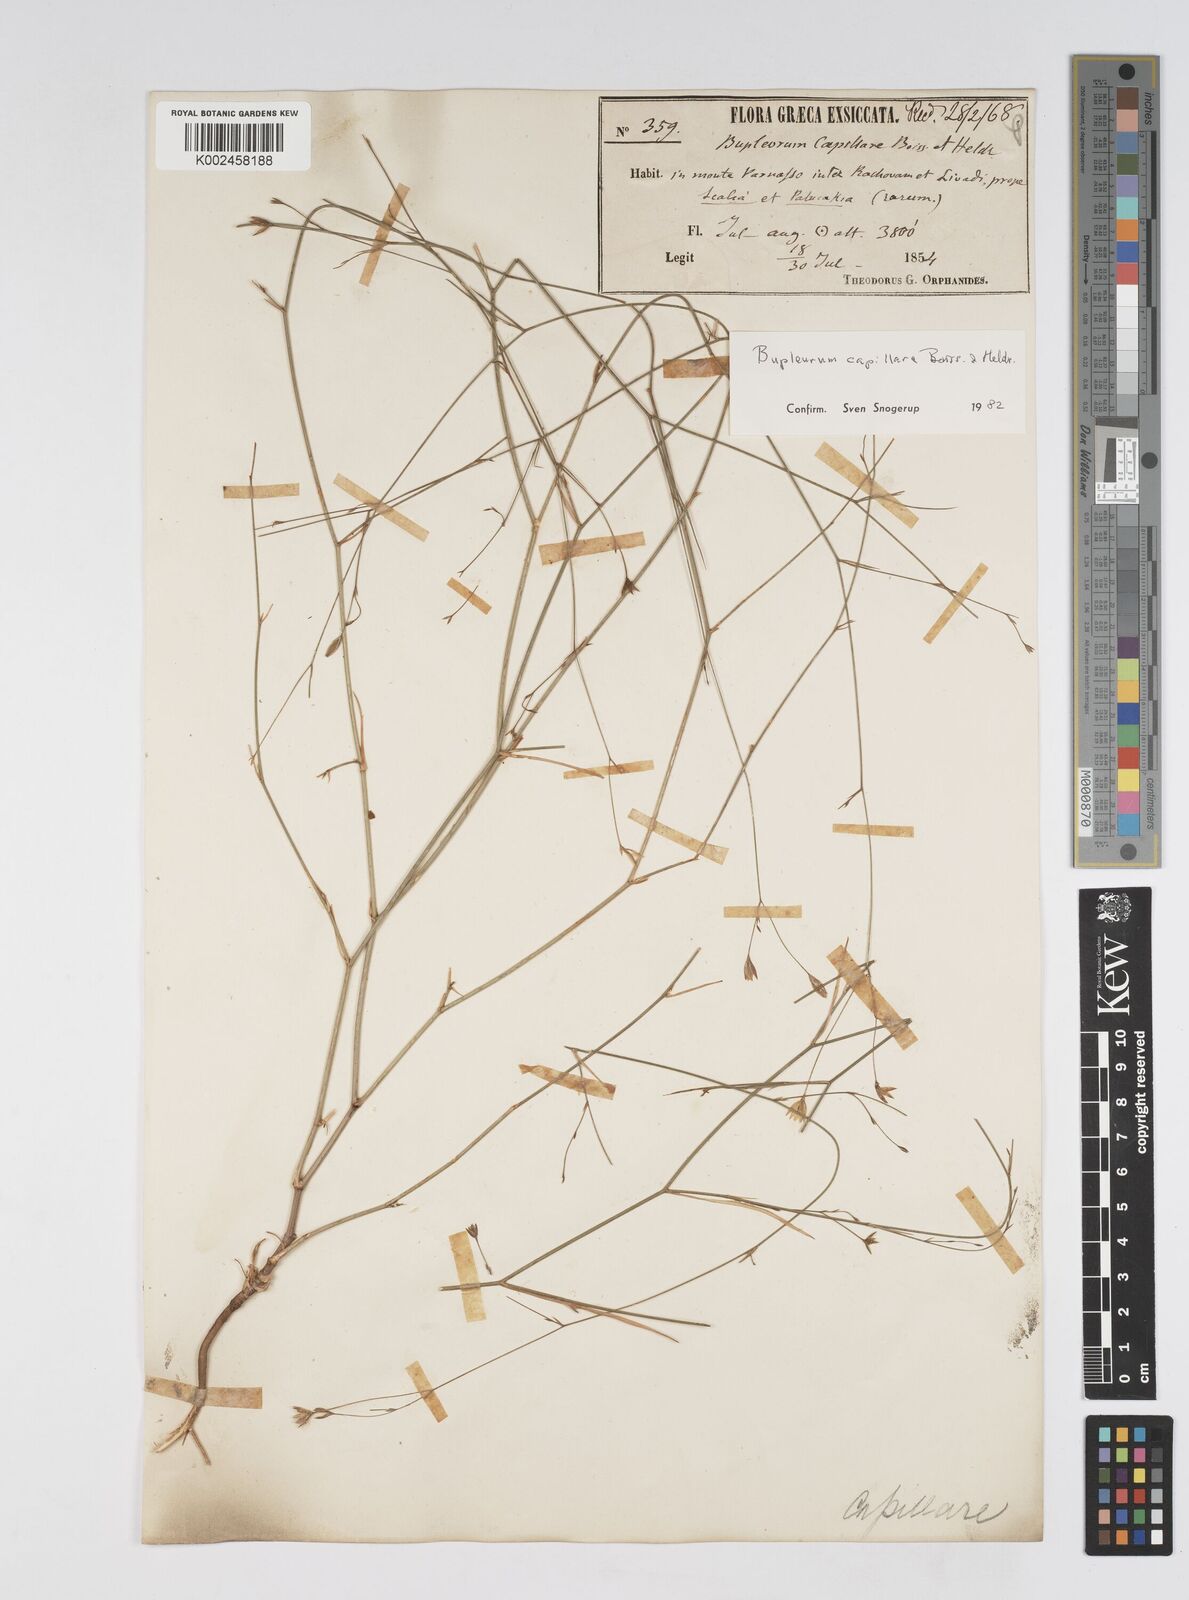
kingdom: Plantae
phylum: Tracheophyta
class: Magnoliopsida
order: Apiales
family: Apiaceae
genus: Bupleurum
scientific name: Bupleurum capillare
